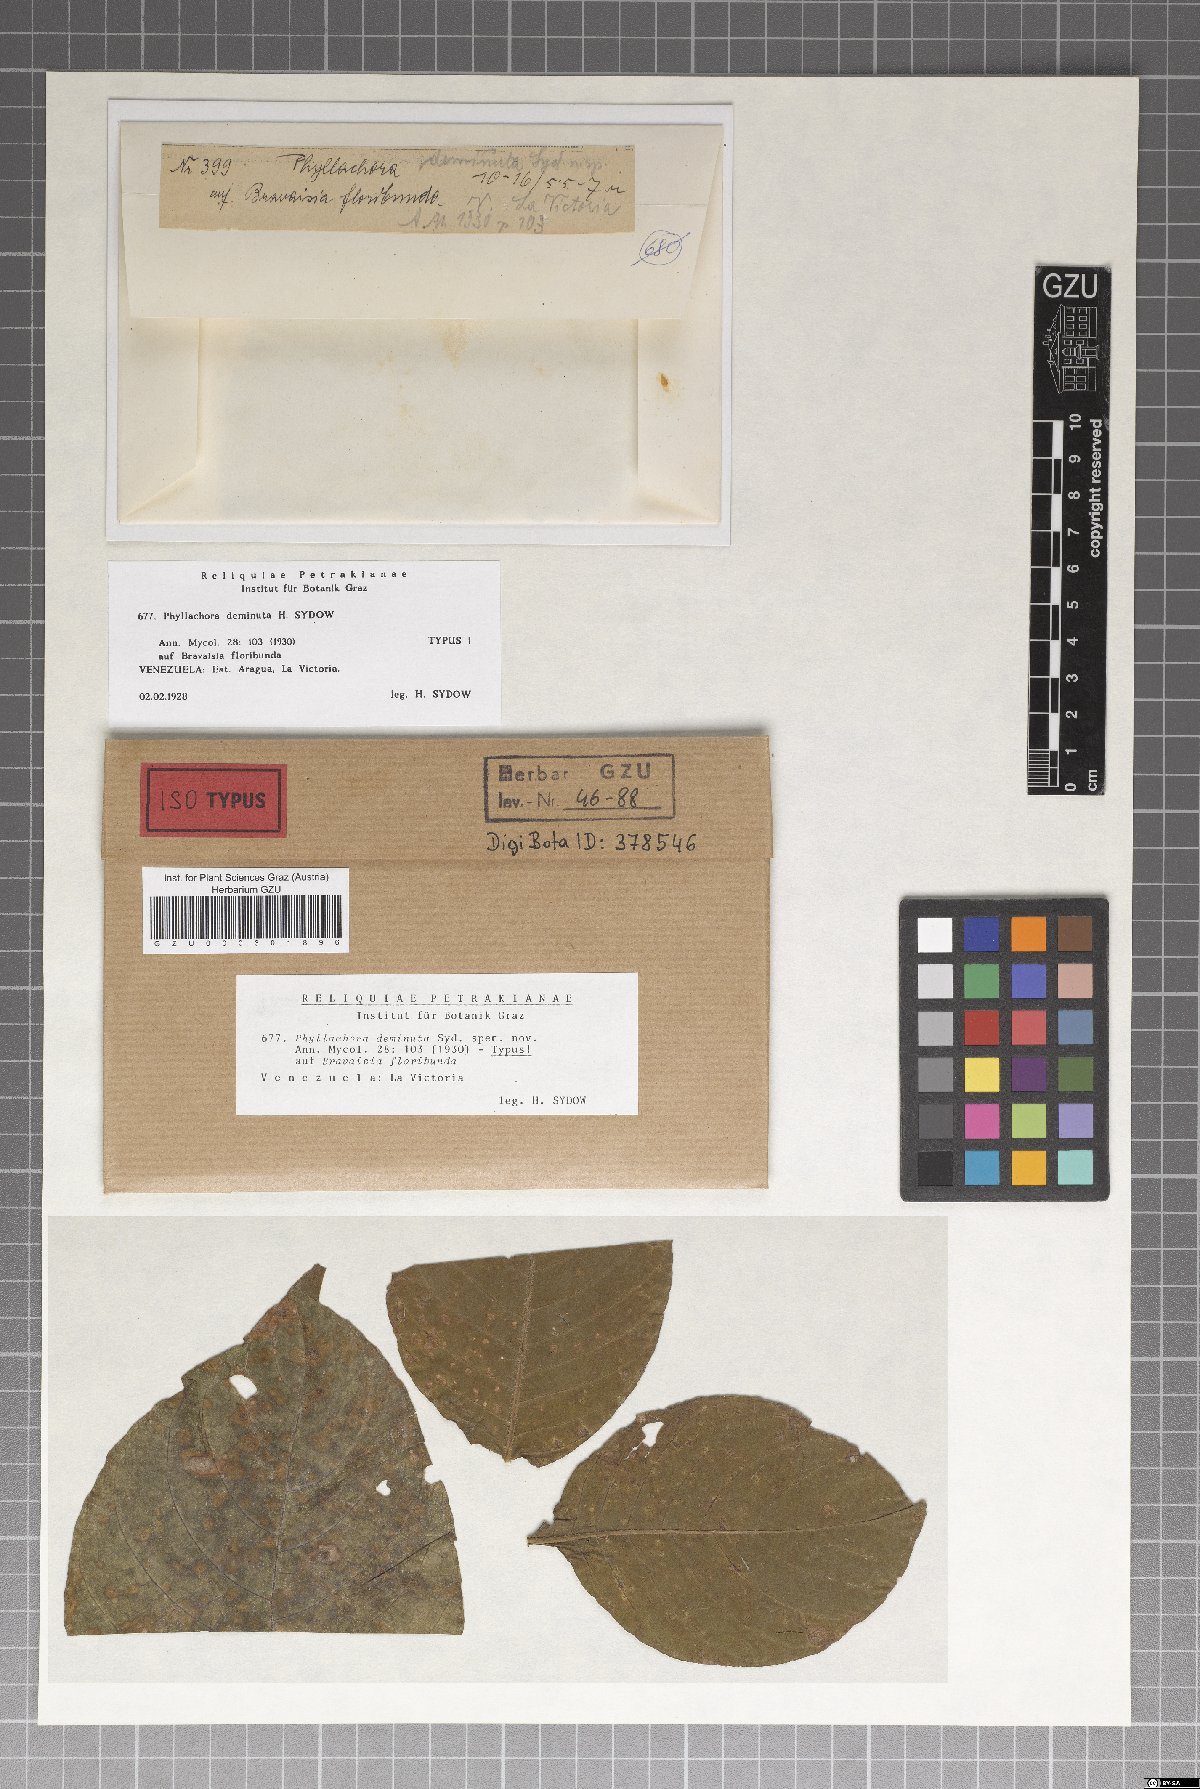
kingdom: Fungi
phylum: Ascomycota
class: Sordariomycetes
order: Phyllachorales
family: Phyllachoraceae
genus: Phyllachora
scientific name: Phyllachora deminuta
